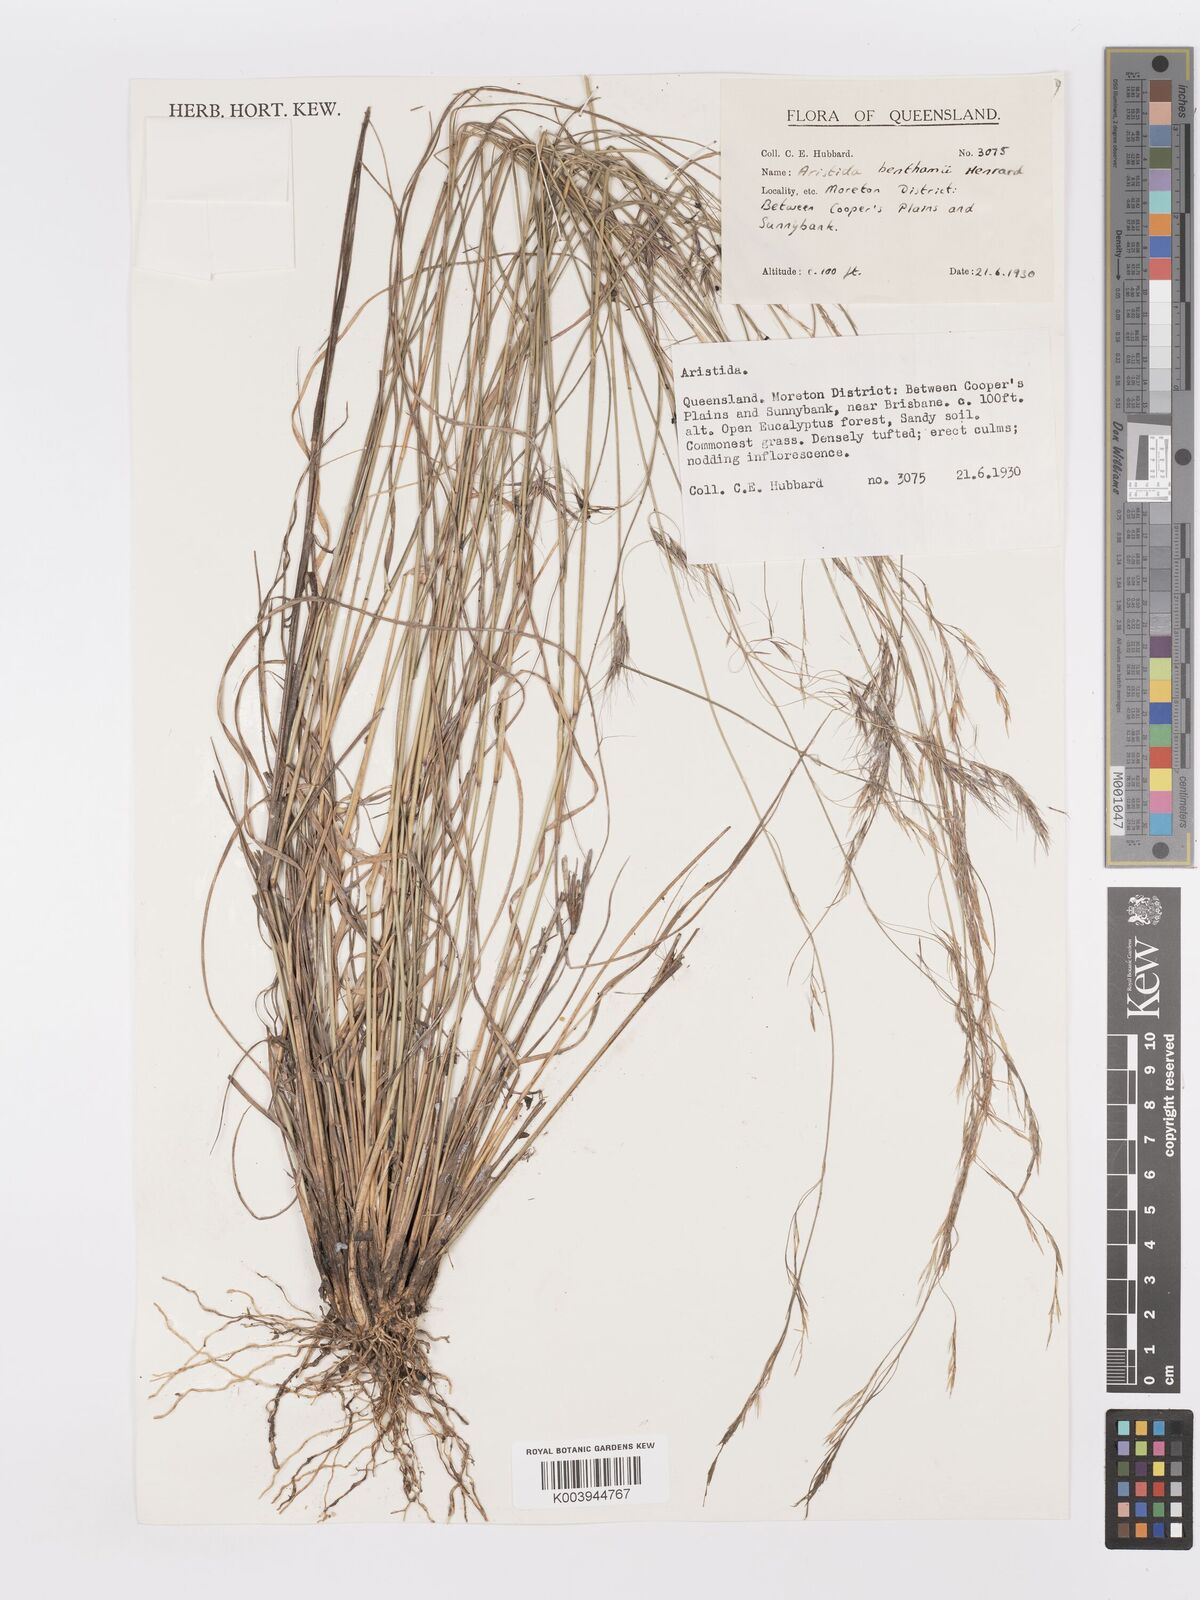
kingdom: Plantae
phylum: Tracheophyta
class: Liliopsida
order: Poales
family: Poaceae
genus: Aristida
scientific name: Aristida benthamii
